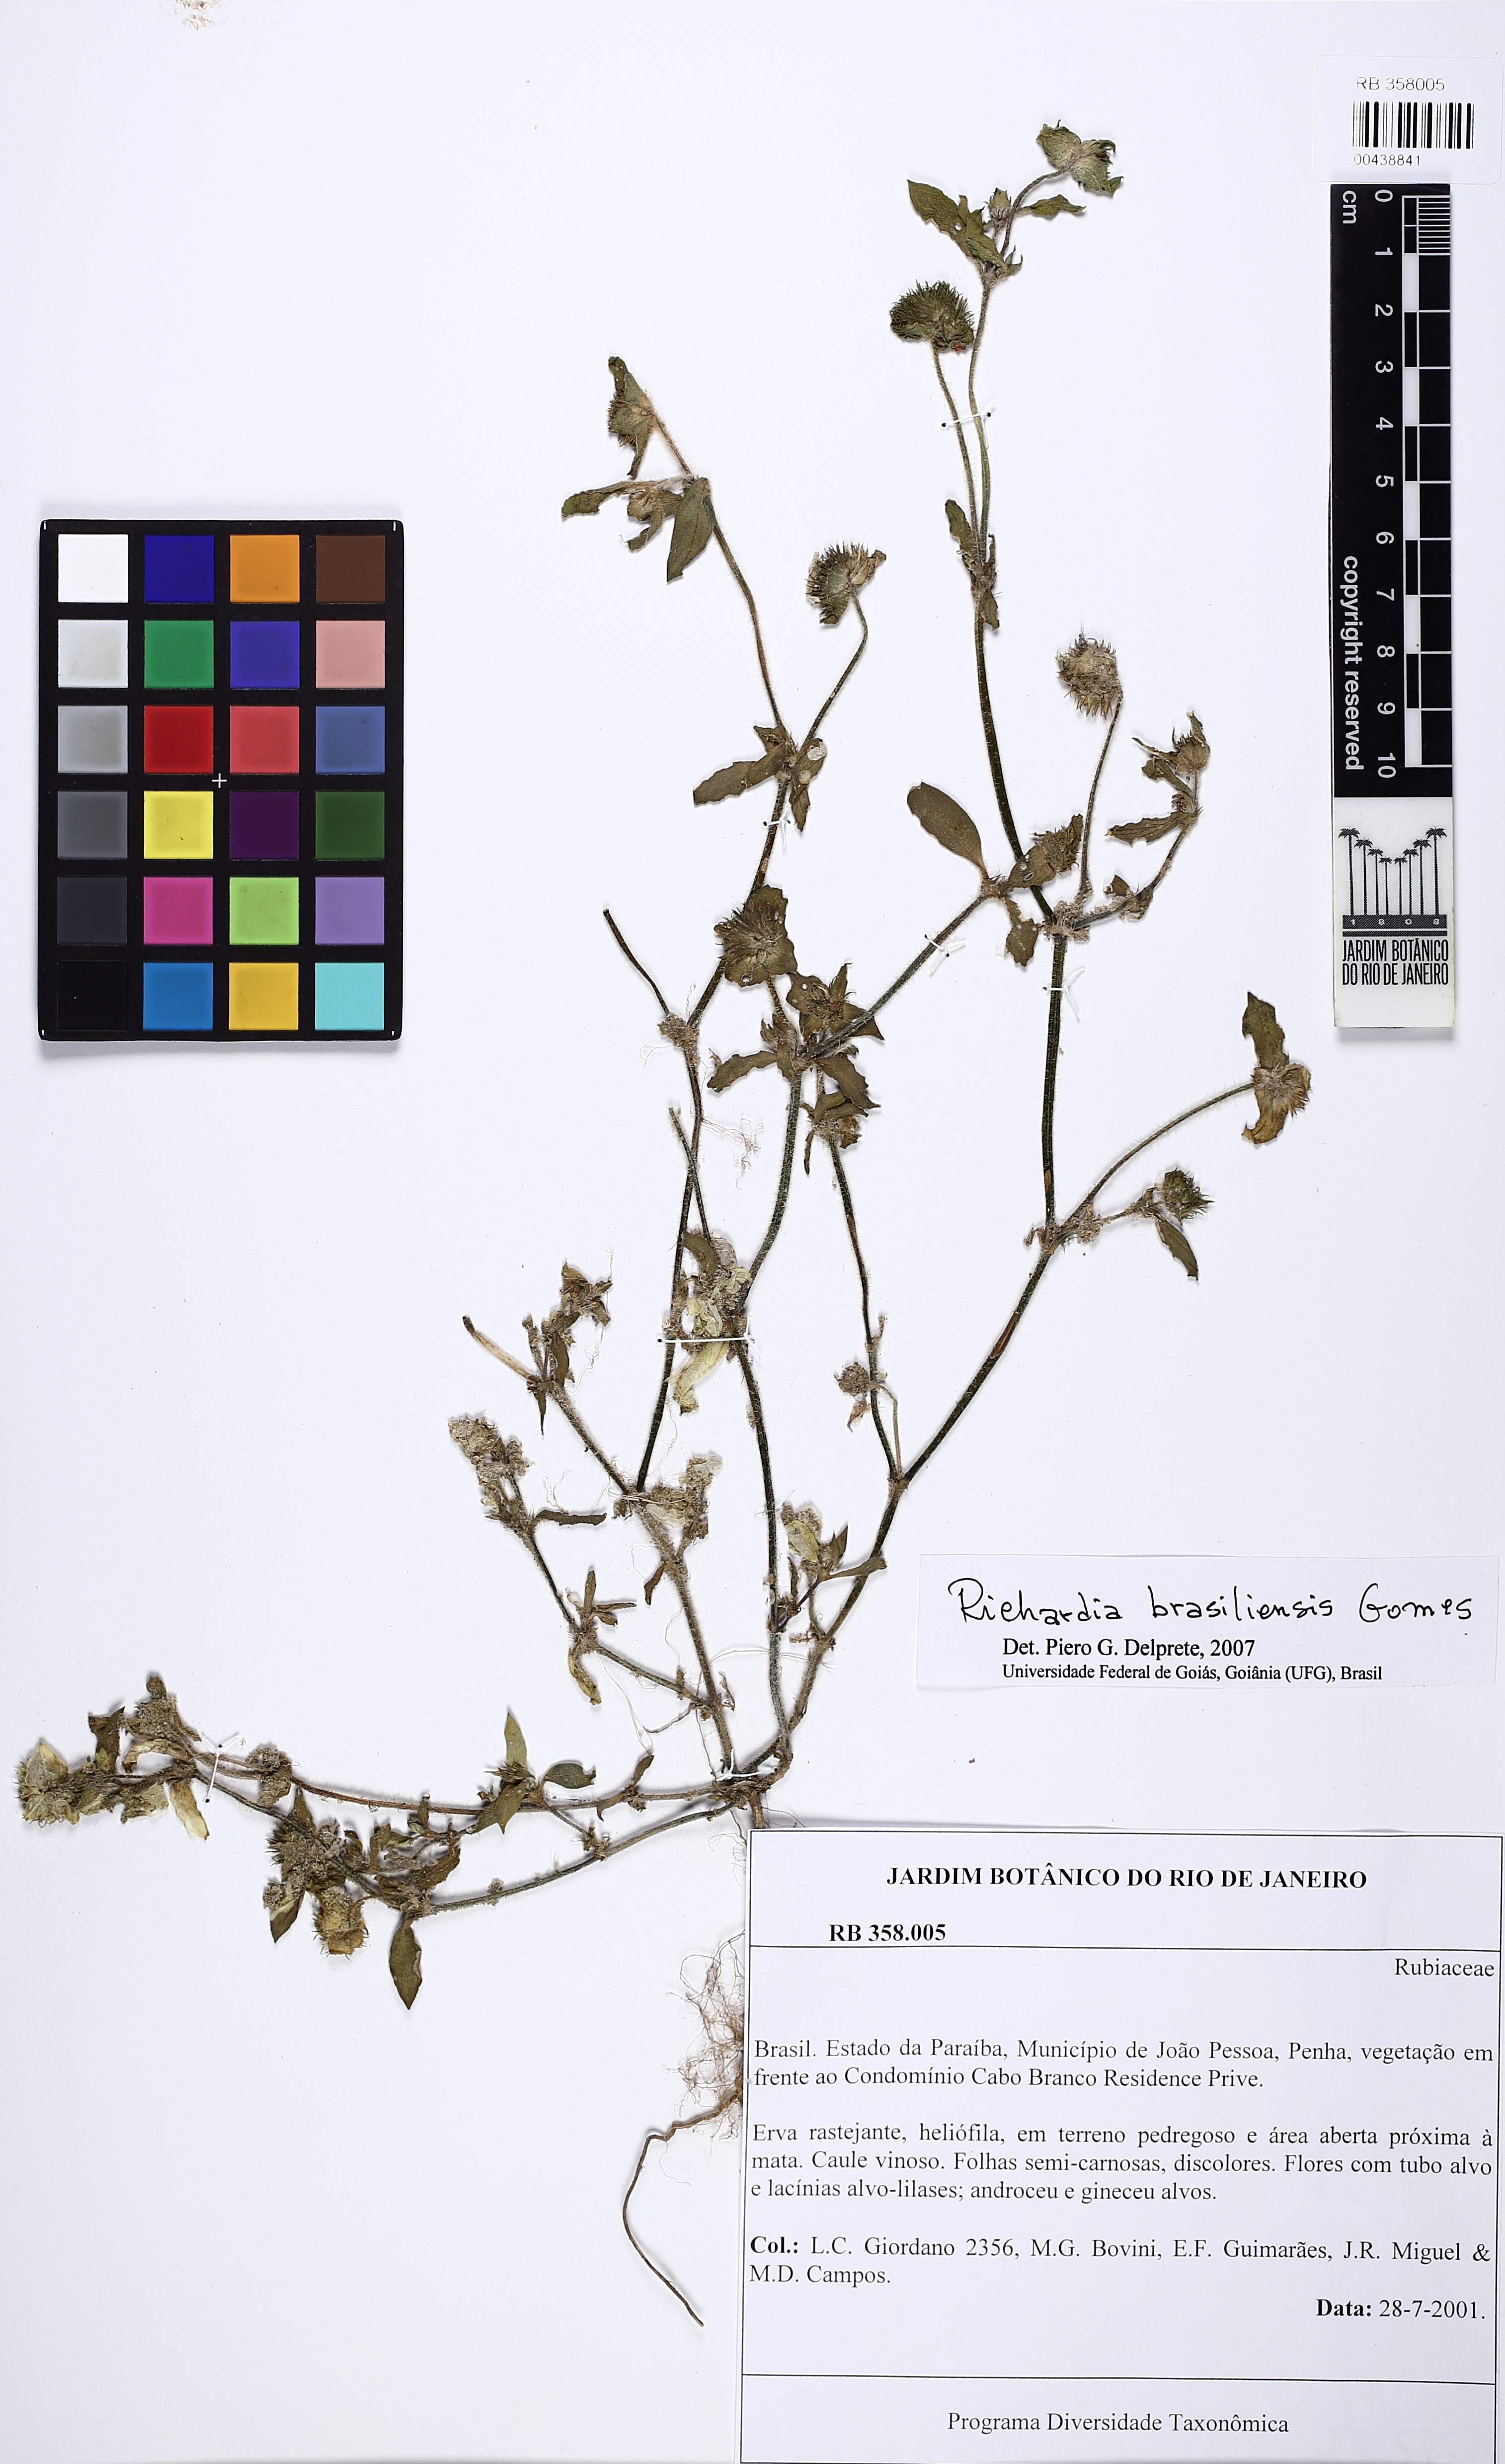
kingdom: Plantae
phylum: Tracheophyta
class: Magnoliopsida
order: Gentianales
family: Rubiaceae
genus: Richardia
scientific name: Richardia brasiliensis
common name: Tropical mexican clover
